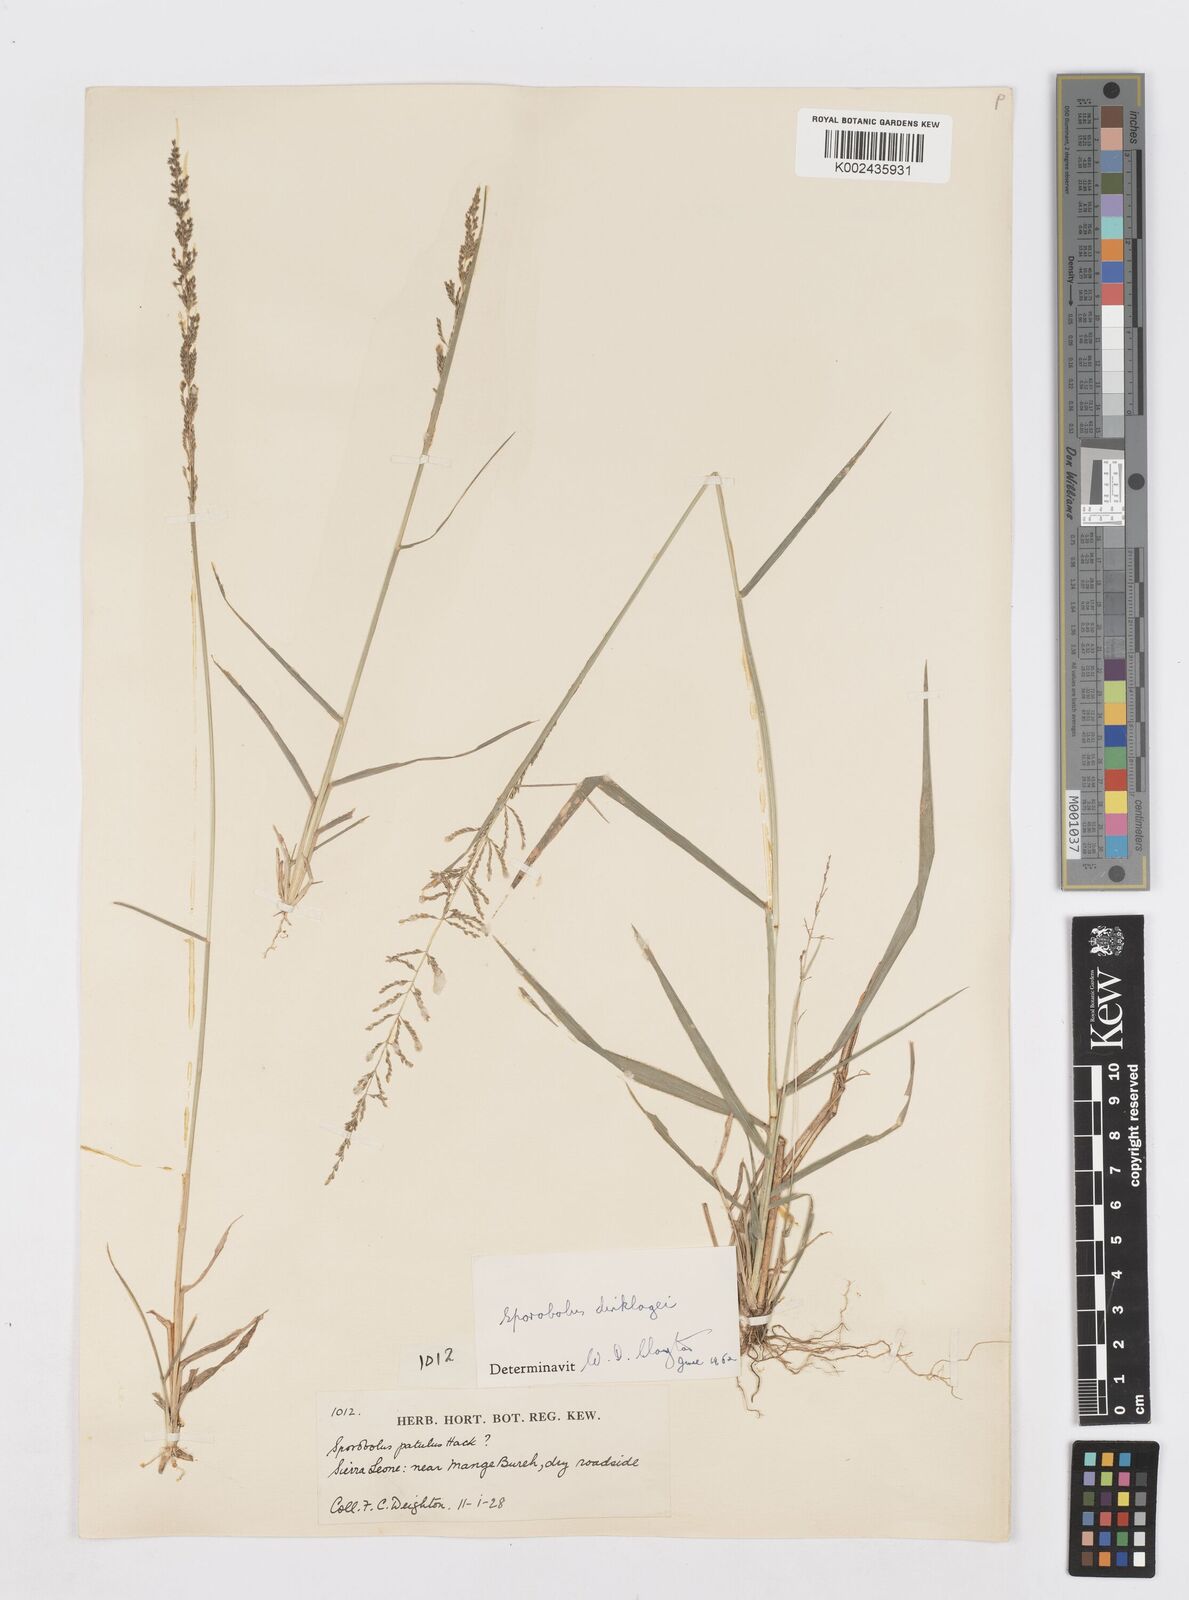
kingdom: Plantae
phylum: Tracheophyta
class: Liliopsida
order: Poales
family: Poaceae
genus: Sporobolus
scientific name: Sporobolus dinklagei
